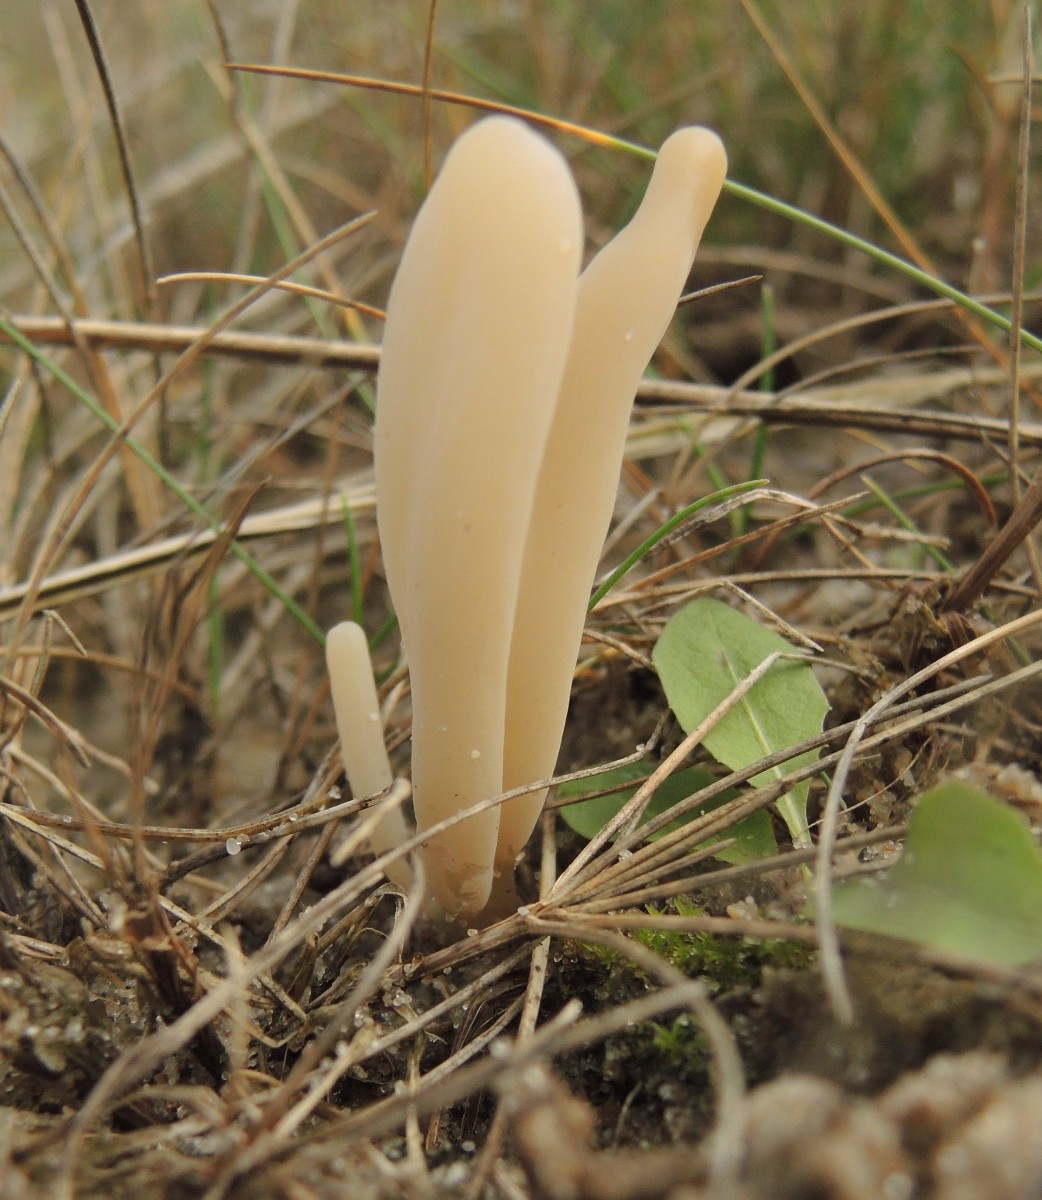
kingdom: Fungi
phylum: Basidiomycota
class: Agaricomycetes
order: Agaricales
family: Clavariaceae
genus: Clavaria
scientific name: Clavaria tenuipes
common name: isabellafarvet køllesvamp
